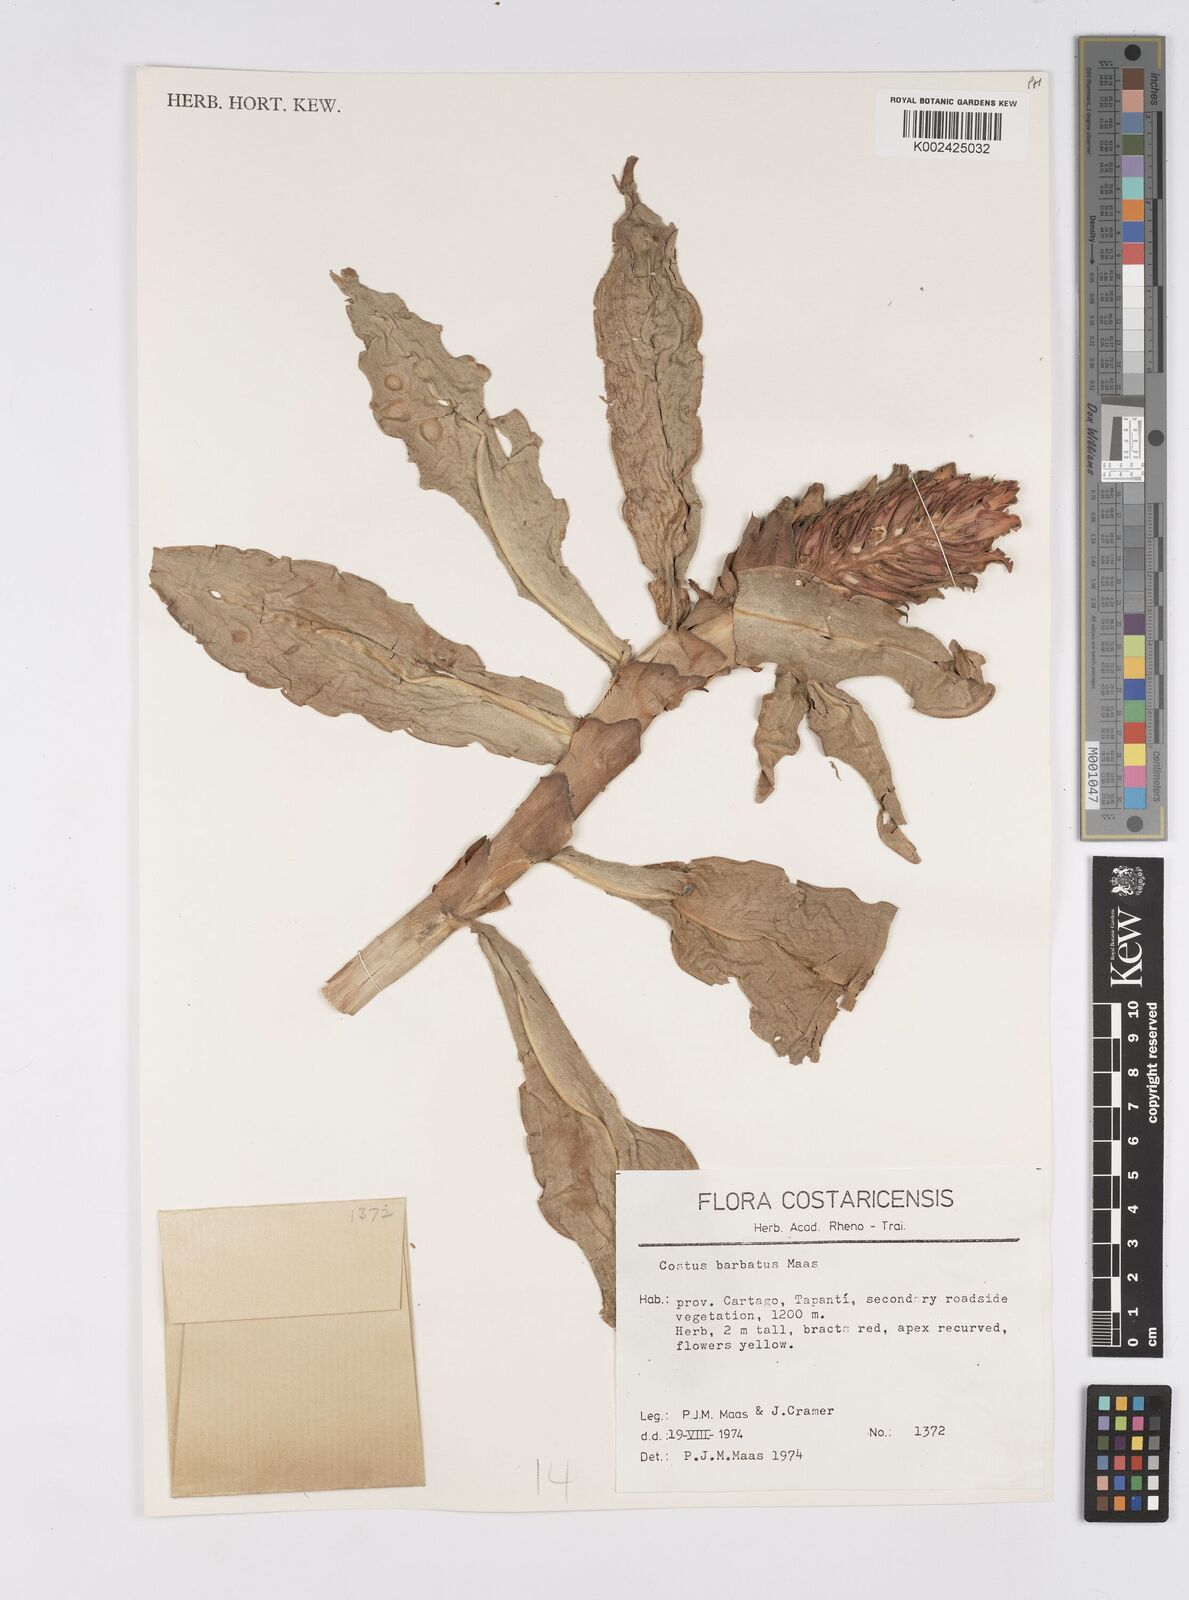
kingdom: Plantae
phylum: Tracheophyta
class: Liliopsida
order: Zingiberales
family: Costaceae
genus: Costus
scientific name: Costus barbatus
